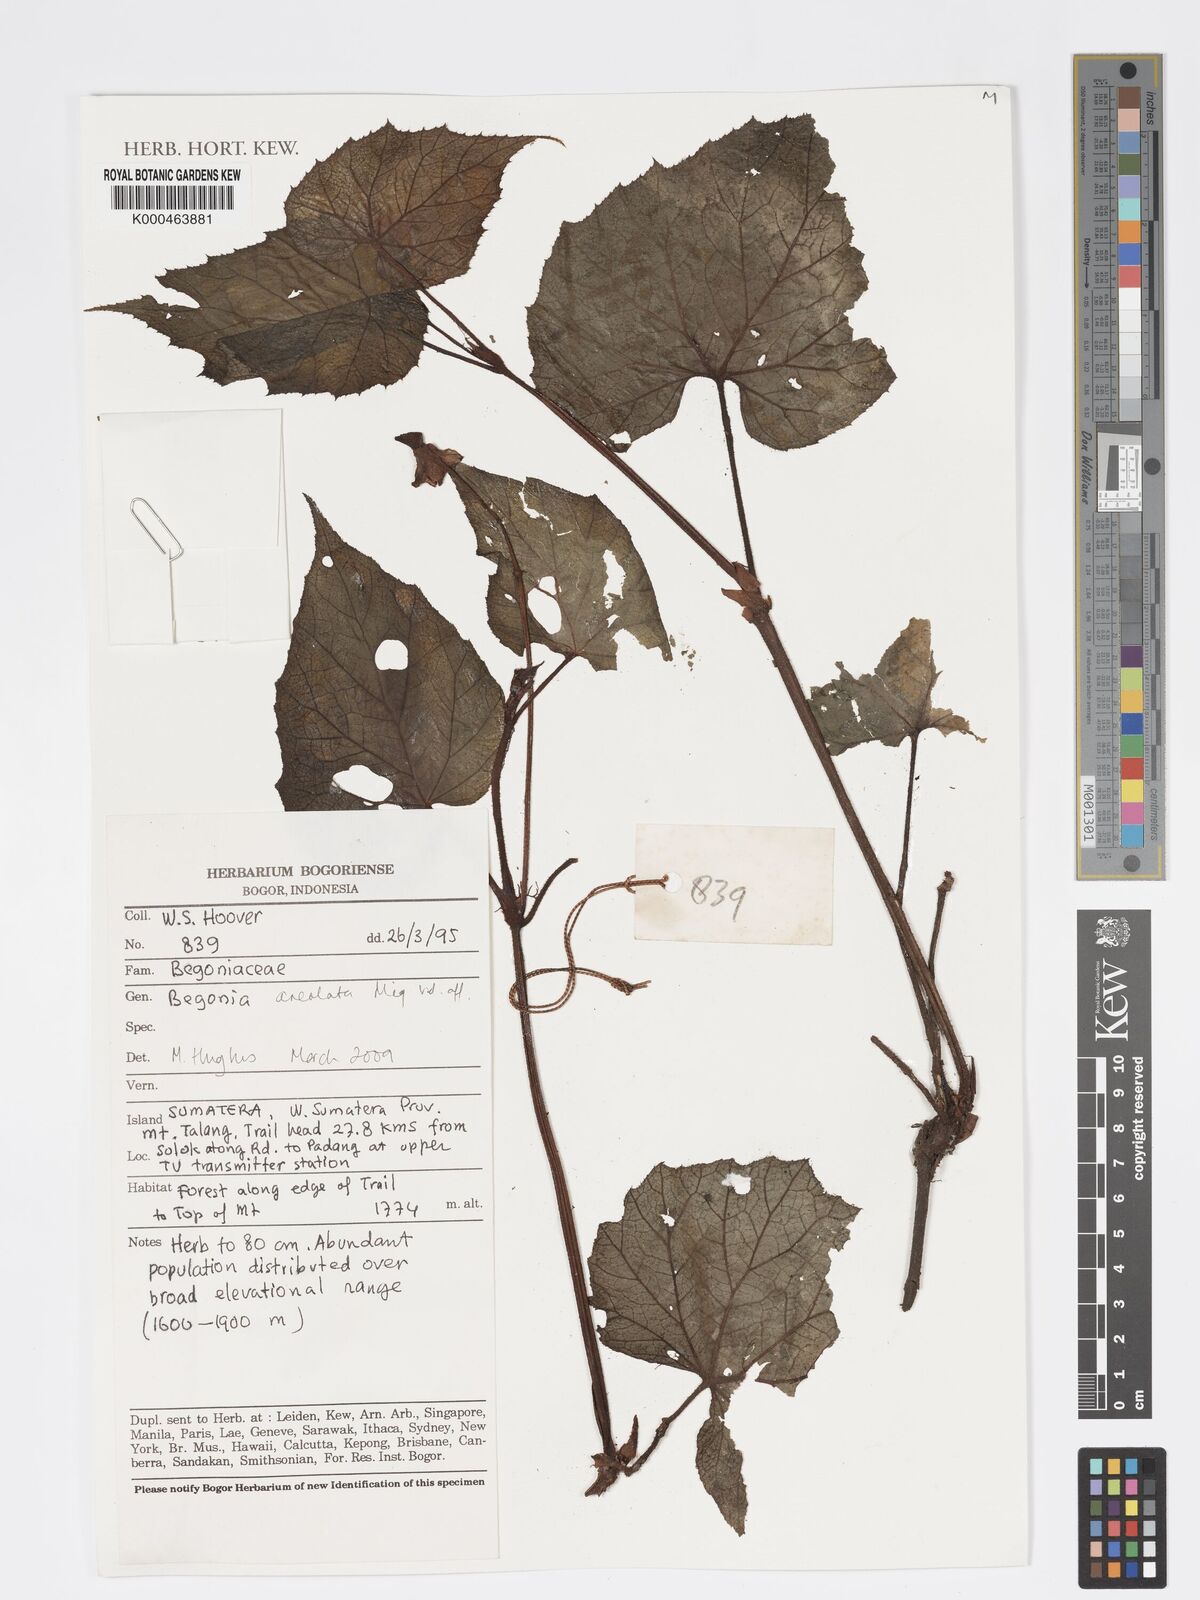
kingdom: Plantae
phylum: Tracheophyta
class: Magnoliopsida
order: Cucurbitales
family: Begoniaceae
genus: Begonia
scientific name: Begonia
